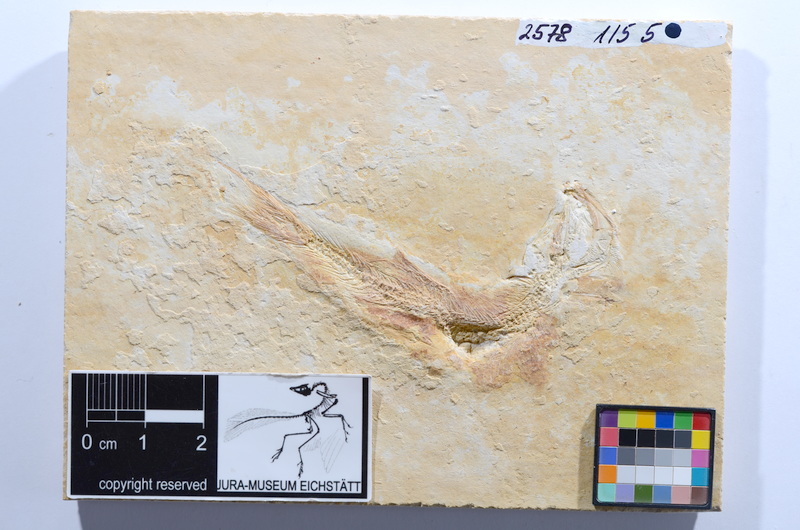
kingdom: Animalia
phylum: Chordata
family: Ascalaboidae
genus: Tharsis
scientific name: Tharsis dubius
